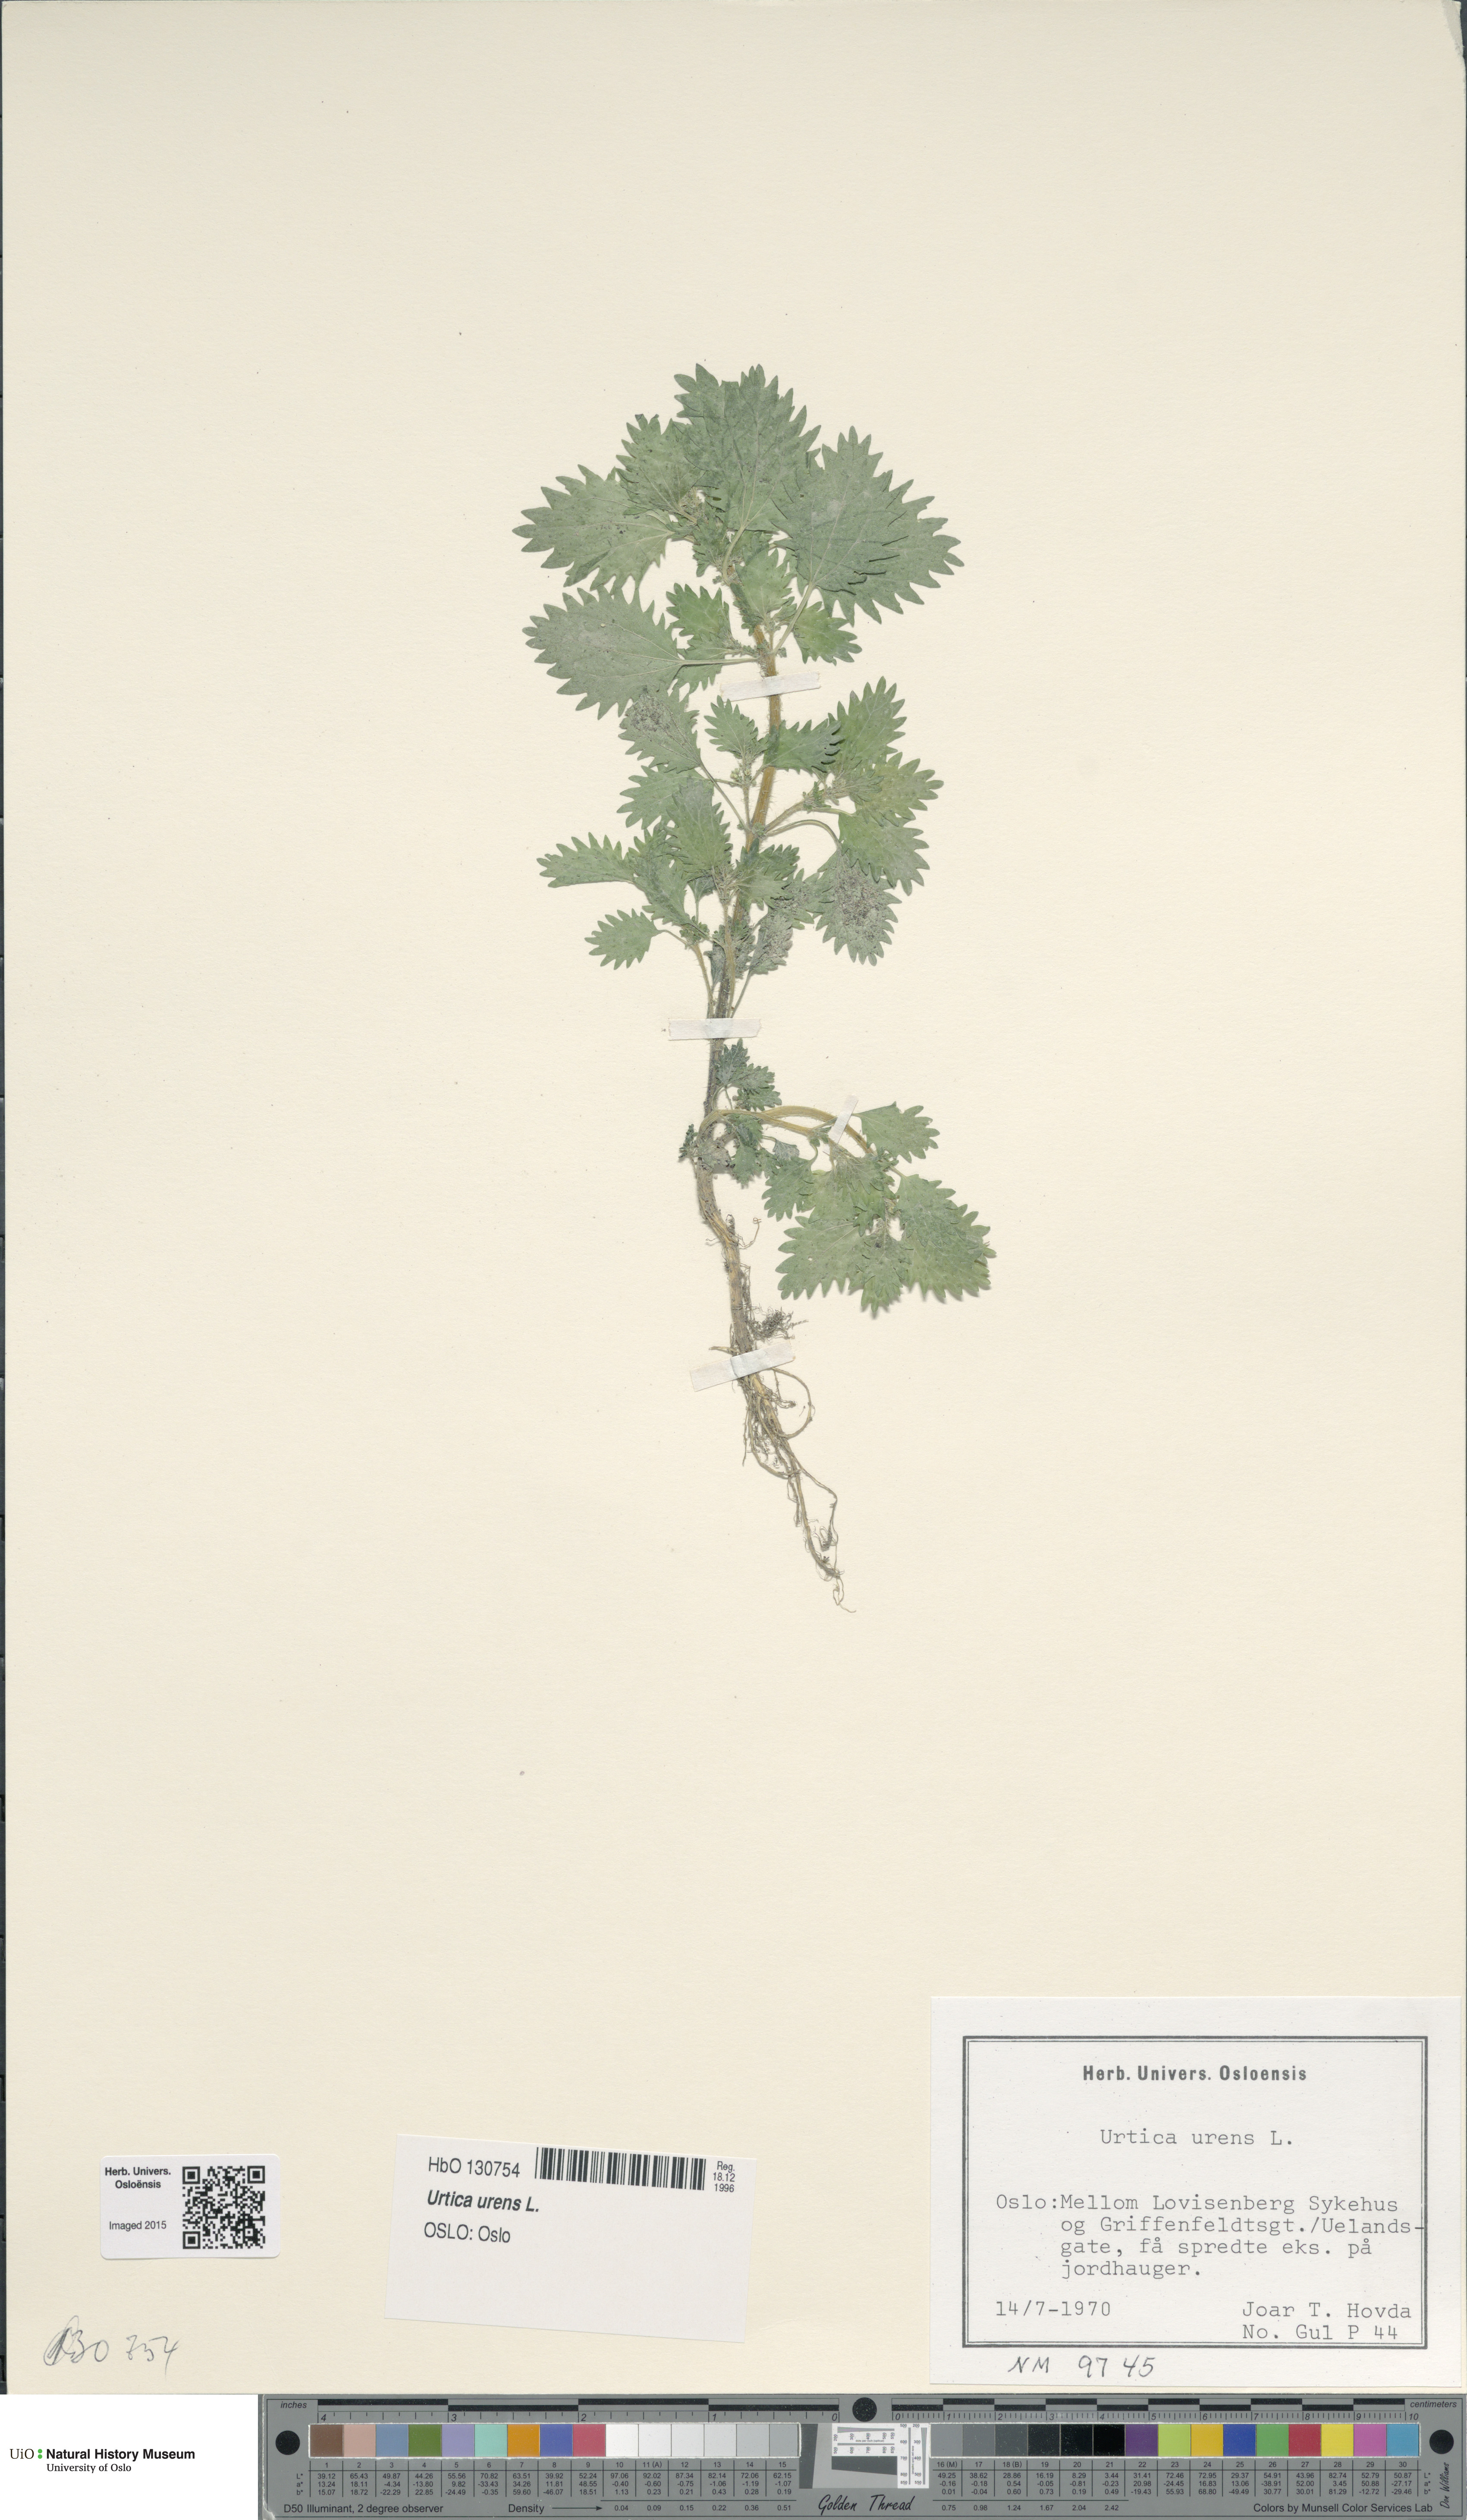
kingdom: Plantae
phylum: Tracheophyta
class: Magnoliopsida
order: Rosales
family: Urticaceae
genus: Urtica
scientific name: Urtica urens
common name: Dwarf nettle
